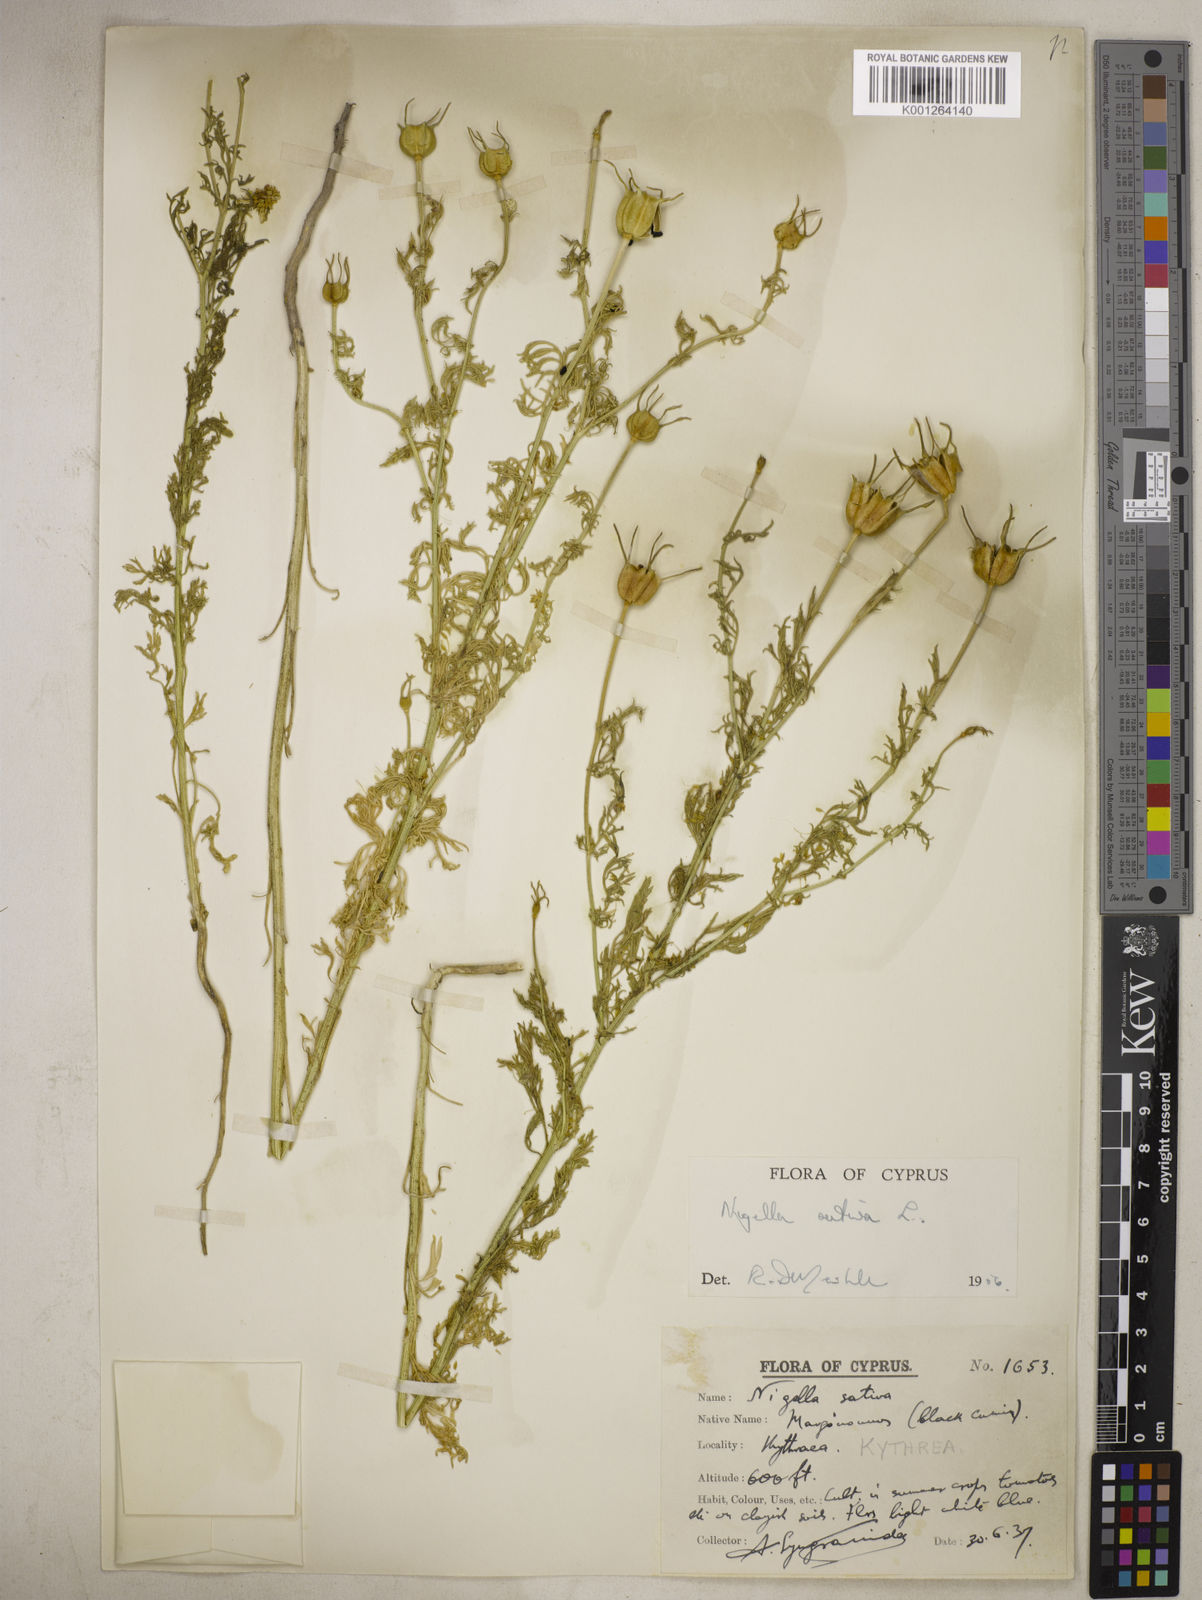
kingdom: Plantae
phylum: Tracheophyta
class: Magnoliopsida
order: Ranunculales
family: Ranunculaceae
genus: Nigella
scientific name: Nigella sativa
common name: Black-cumin
